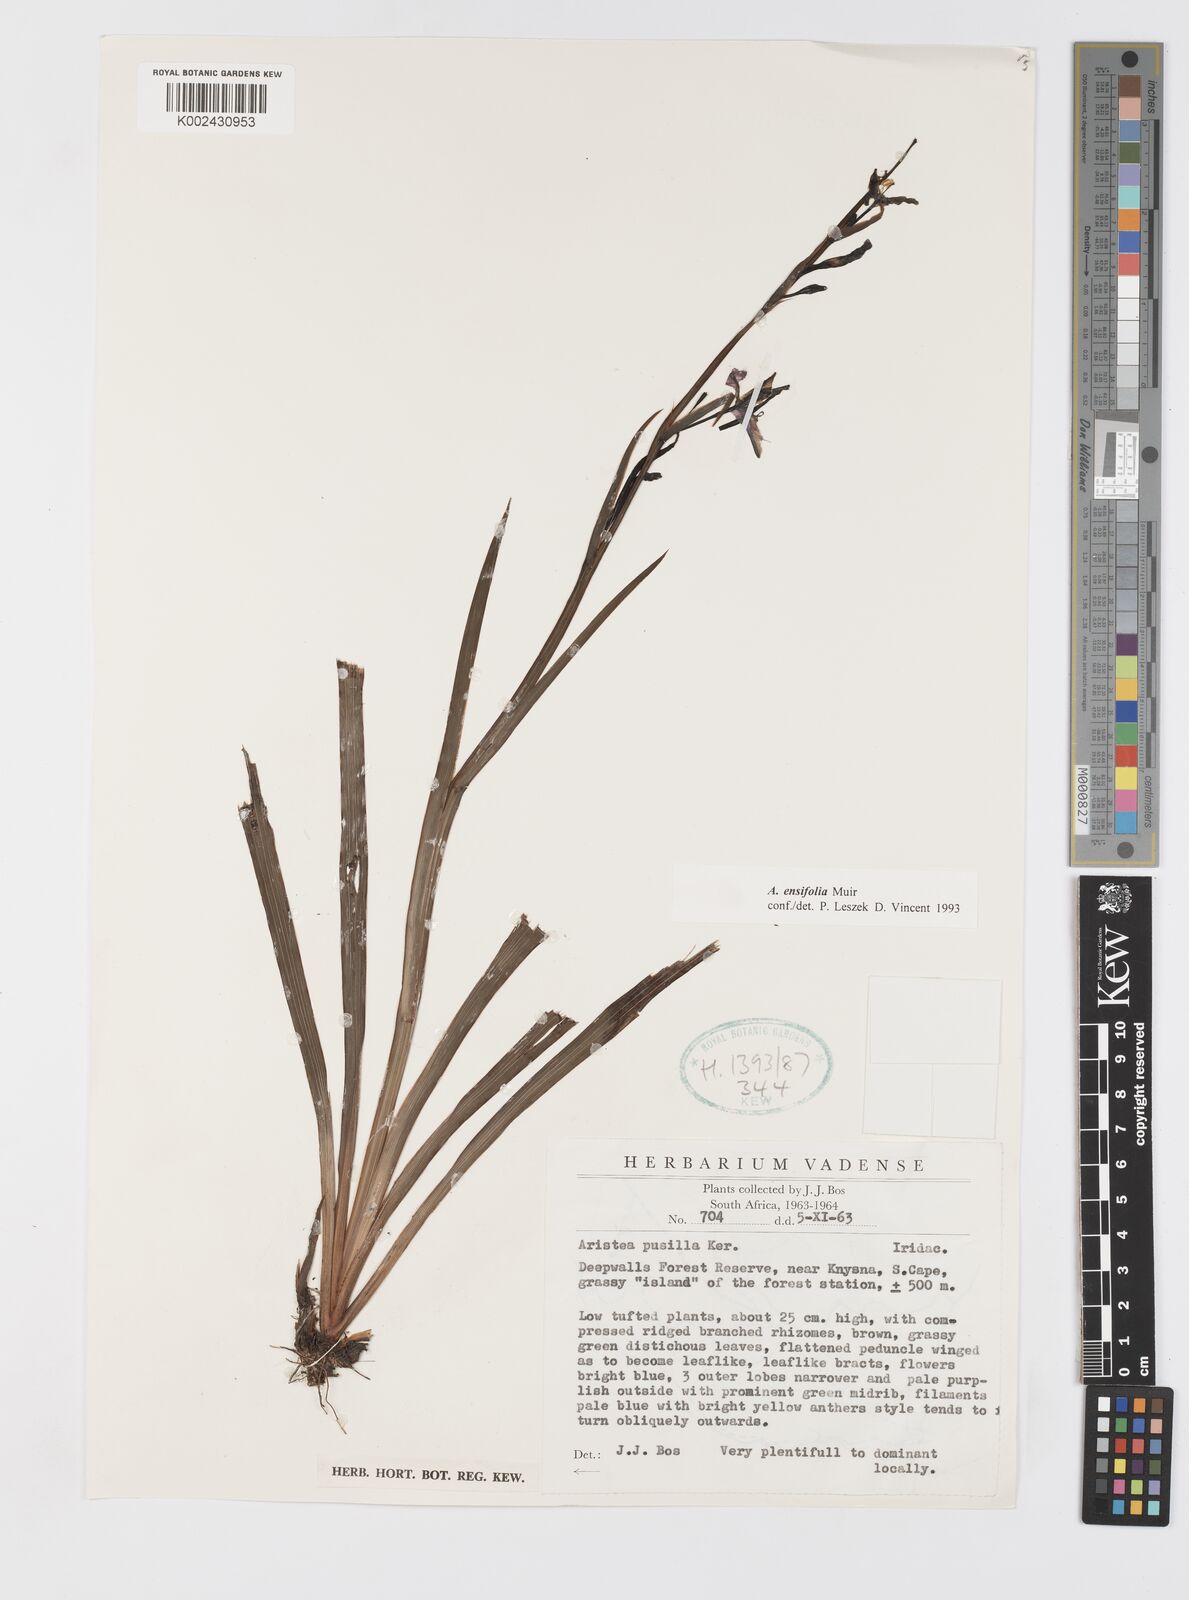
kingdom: Plantae
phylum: Tracheophyta
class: Liliopsida
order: Asparagales
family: Iridaceae
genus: Aristea
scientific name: Aristea ensifolia
